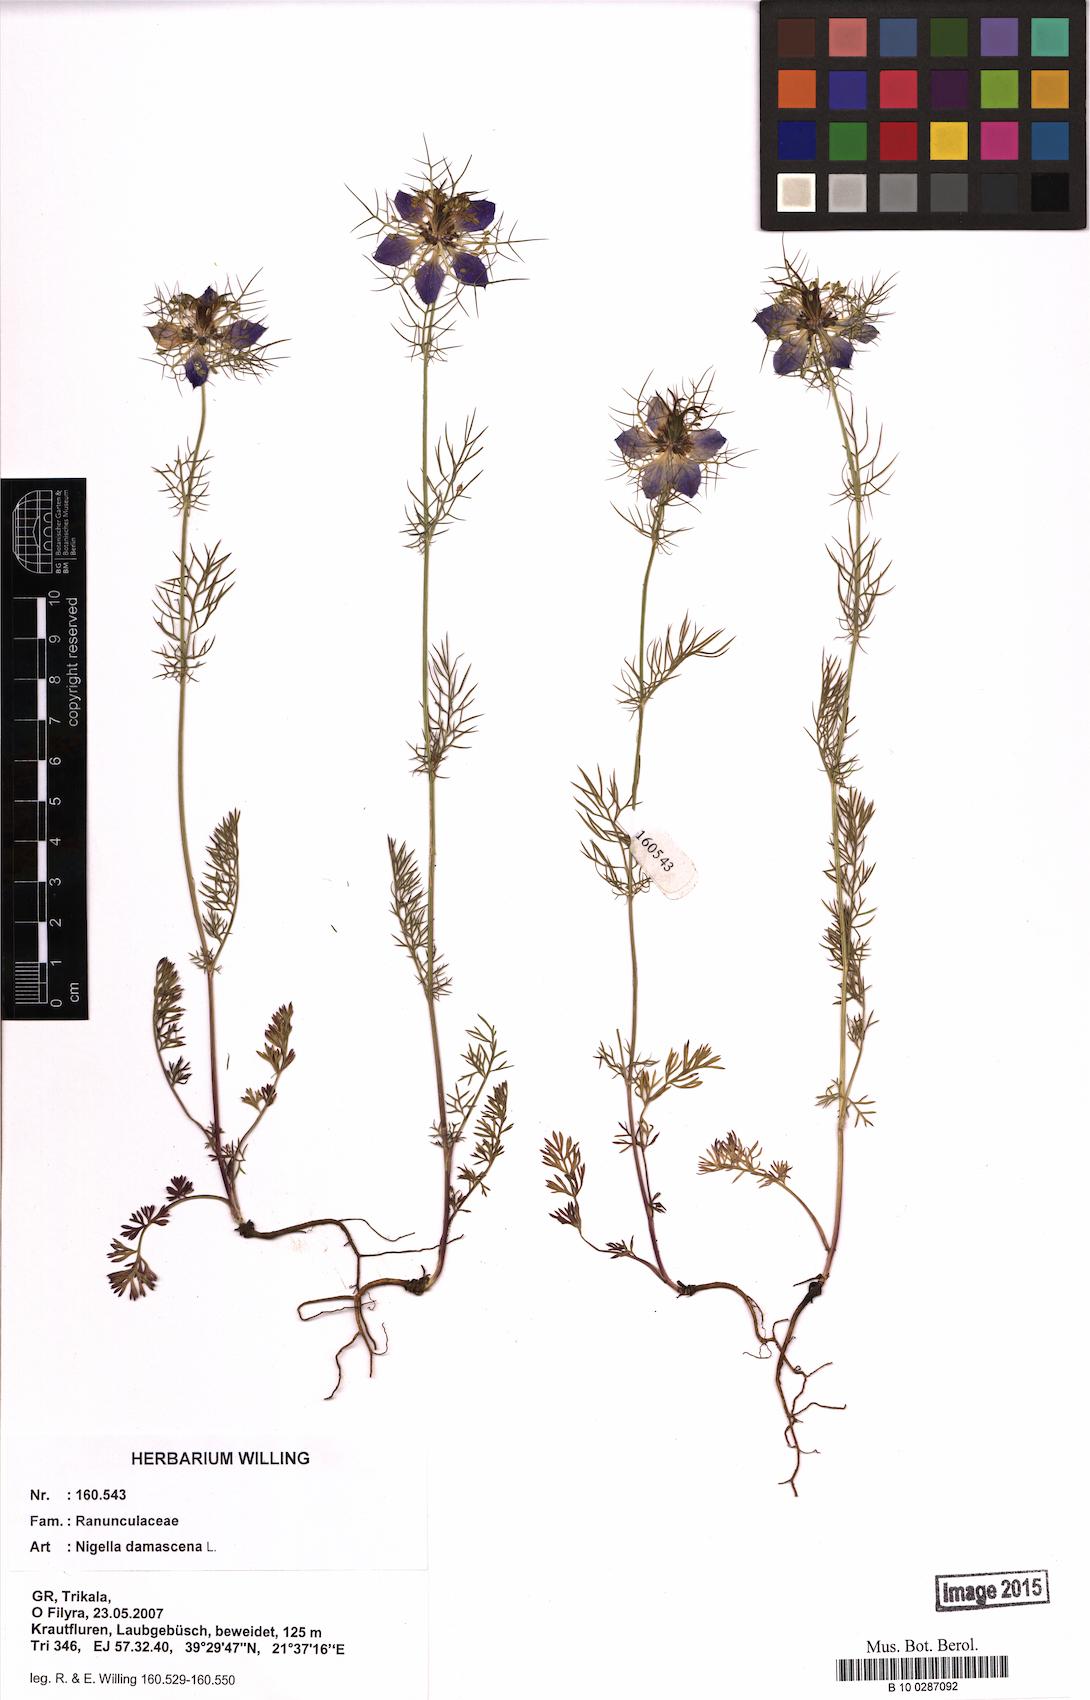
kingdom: Plantae
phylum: Tracheophyta
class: Magnoliopsida
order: Ranunculales
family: Ranunculaceae
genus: Nigella
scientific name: Nigella damascena
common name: Love-in-a-mist
